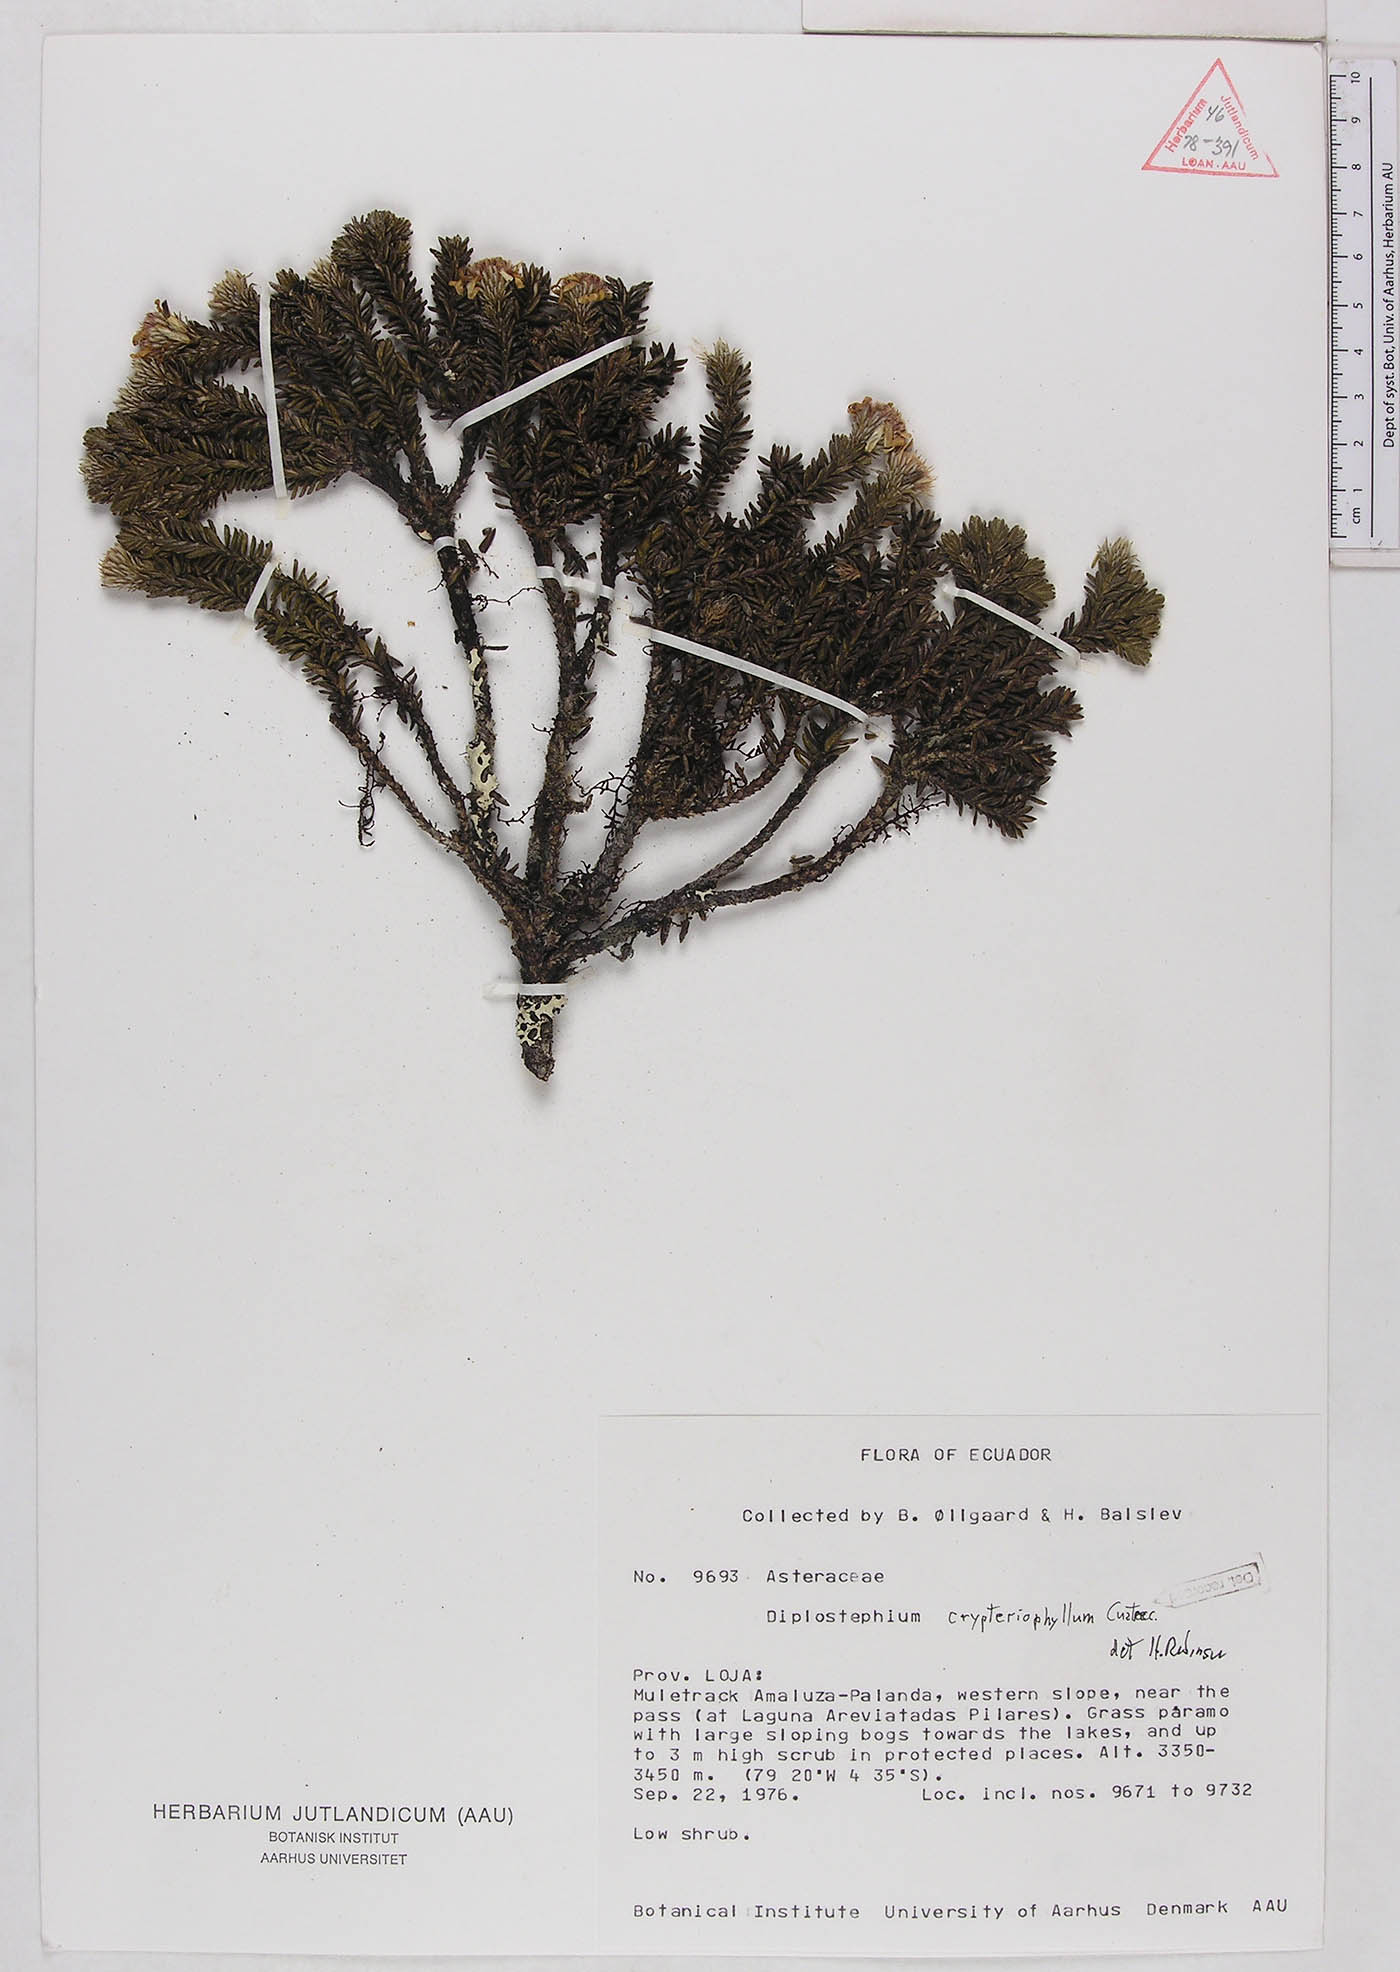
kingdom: Plantae
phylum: Tracheophyta
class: Magnoliopsida
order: Asterales
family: Asteraceae
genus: Diplostephium
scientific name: Diplostephium crypteriophyllum
